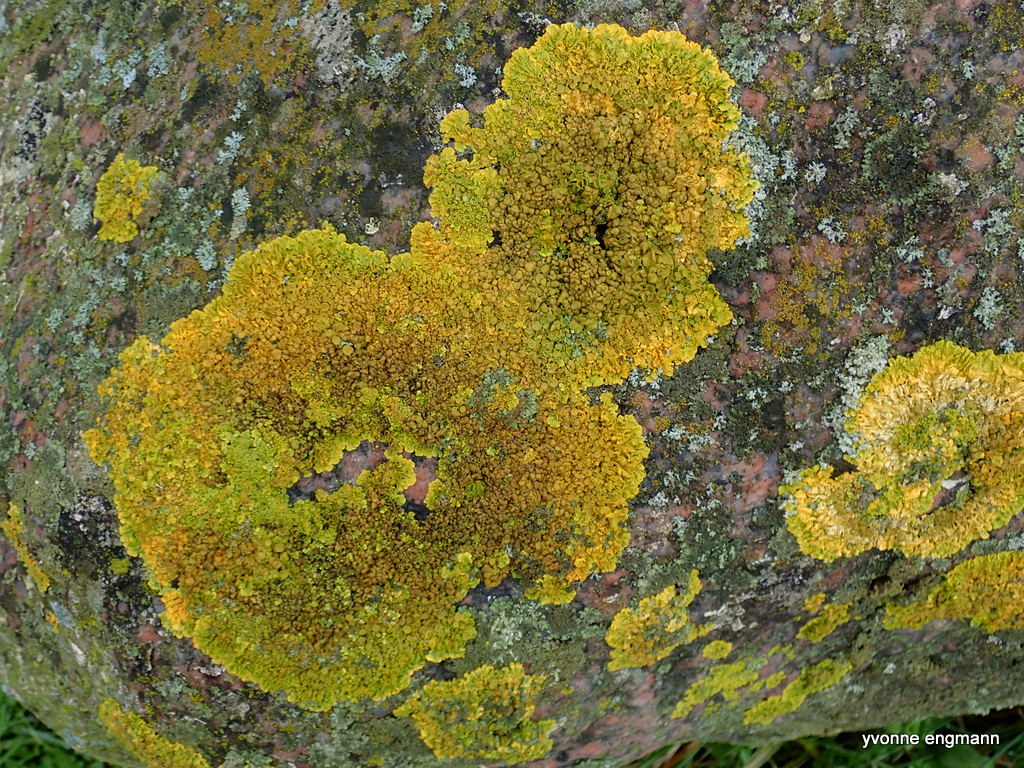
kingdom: Fungi
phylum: Ascomycota
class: Lecanoromycetes
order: Teloschistales
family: Teloschistaceae
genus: Xanthoria
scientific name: Xanthoria parietina
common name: almindelig væggelav
